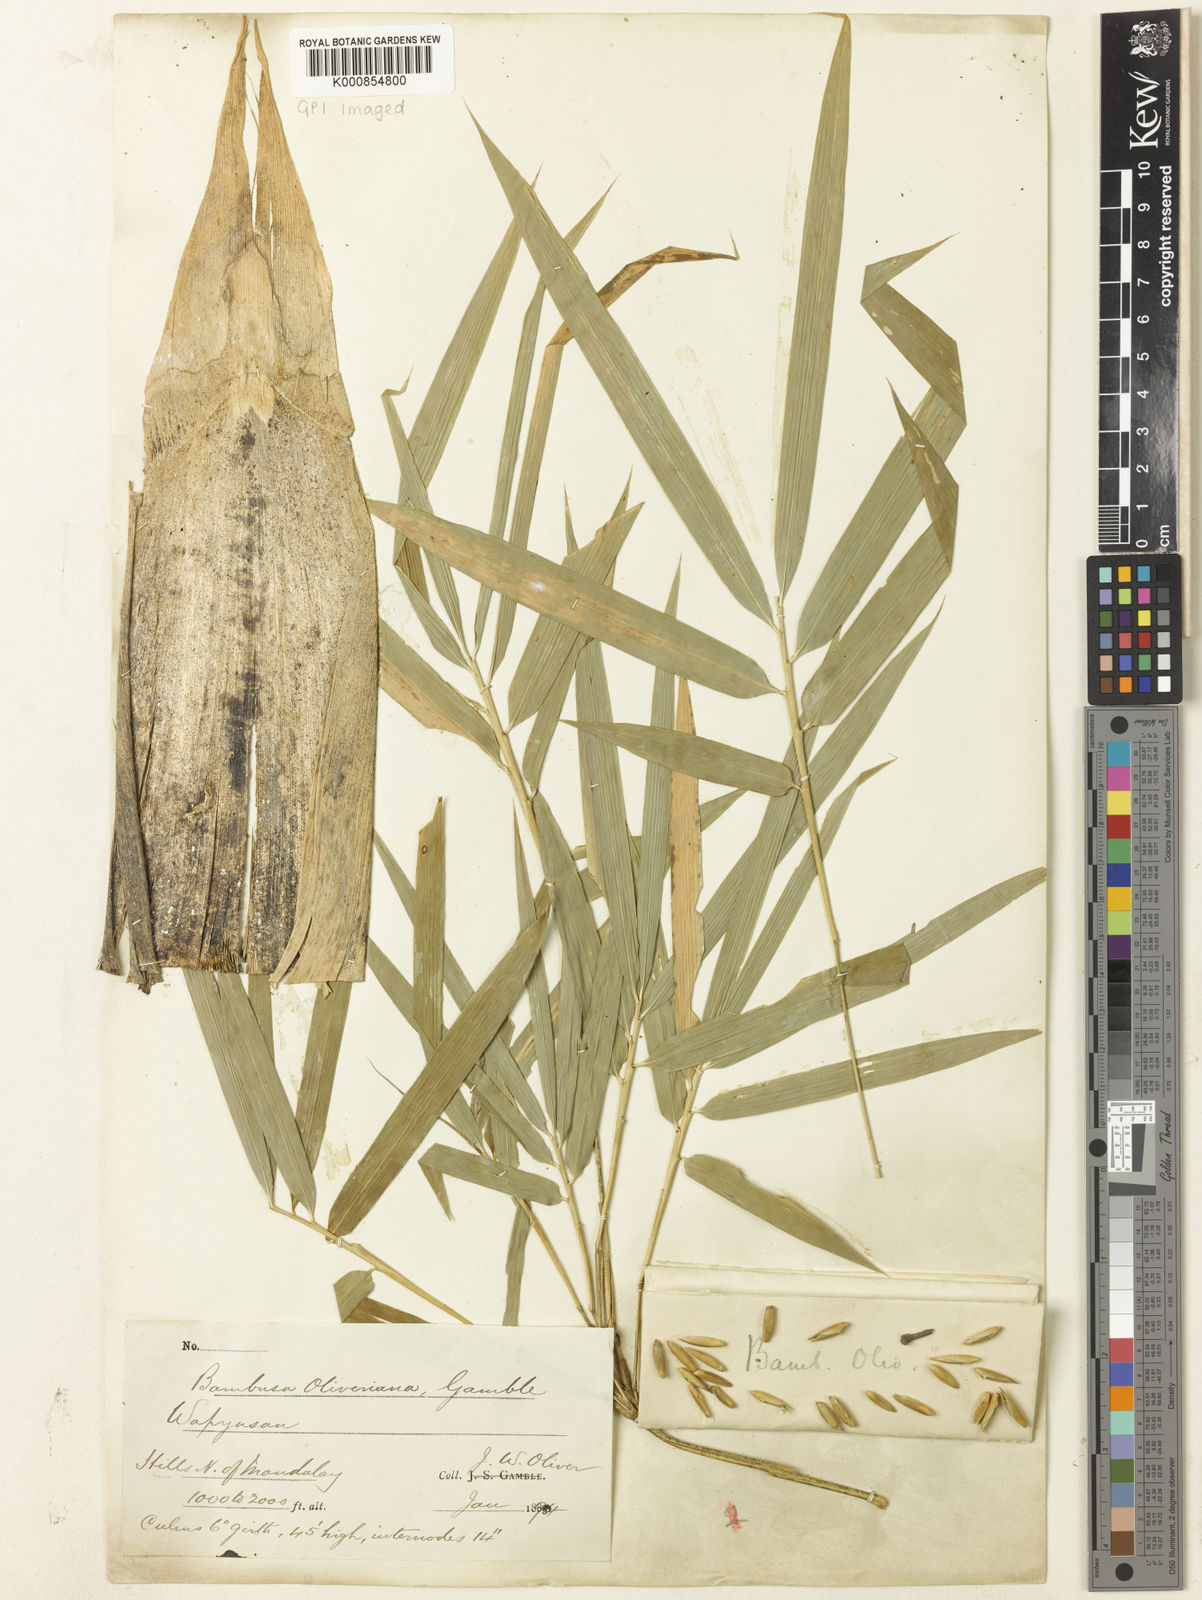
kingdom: Plantae
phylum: Tracheophyta
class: Liliopsida
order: Poales
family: Poaceae
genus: Bambusa
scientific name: Bambusa oliveriana
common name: Bush bamboo
